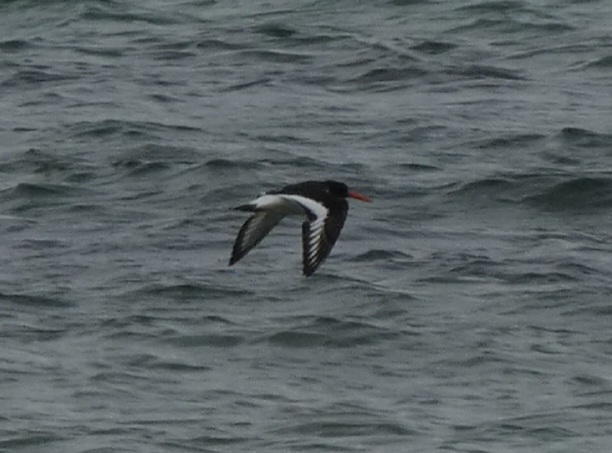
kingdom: Animalia
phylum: Chordata
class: Aves
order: Charadriiformes
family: Haematopodidae
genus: Haematopus
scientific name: Haematopus ostralegus
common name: Strandskade
